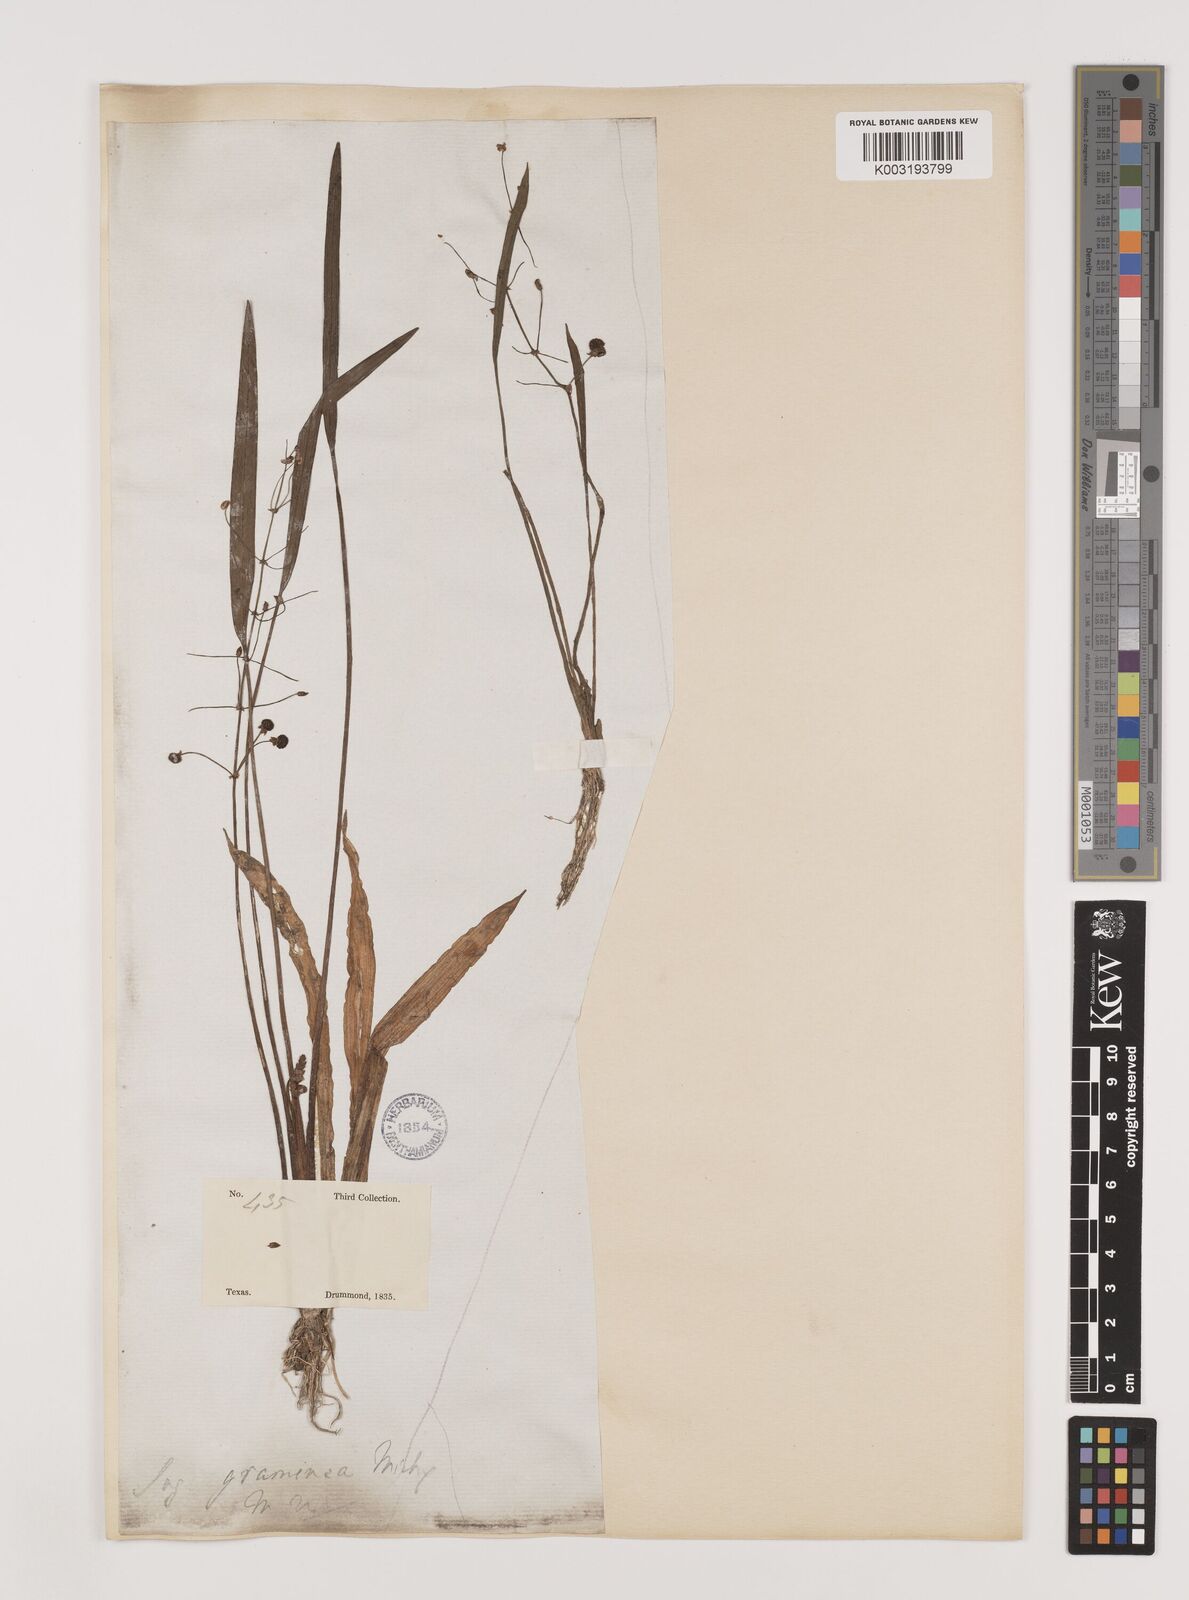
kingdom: Plantae
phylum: Tracheophyta
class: Liliopsida
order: Alismatales
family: Alismataceae
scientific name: Alismataceae
